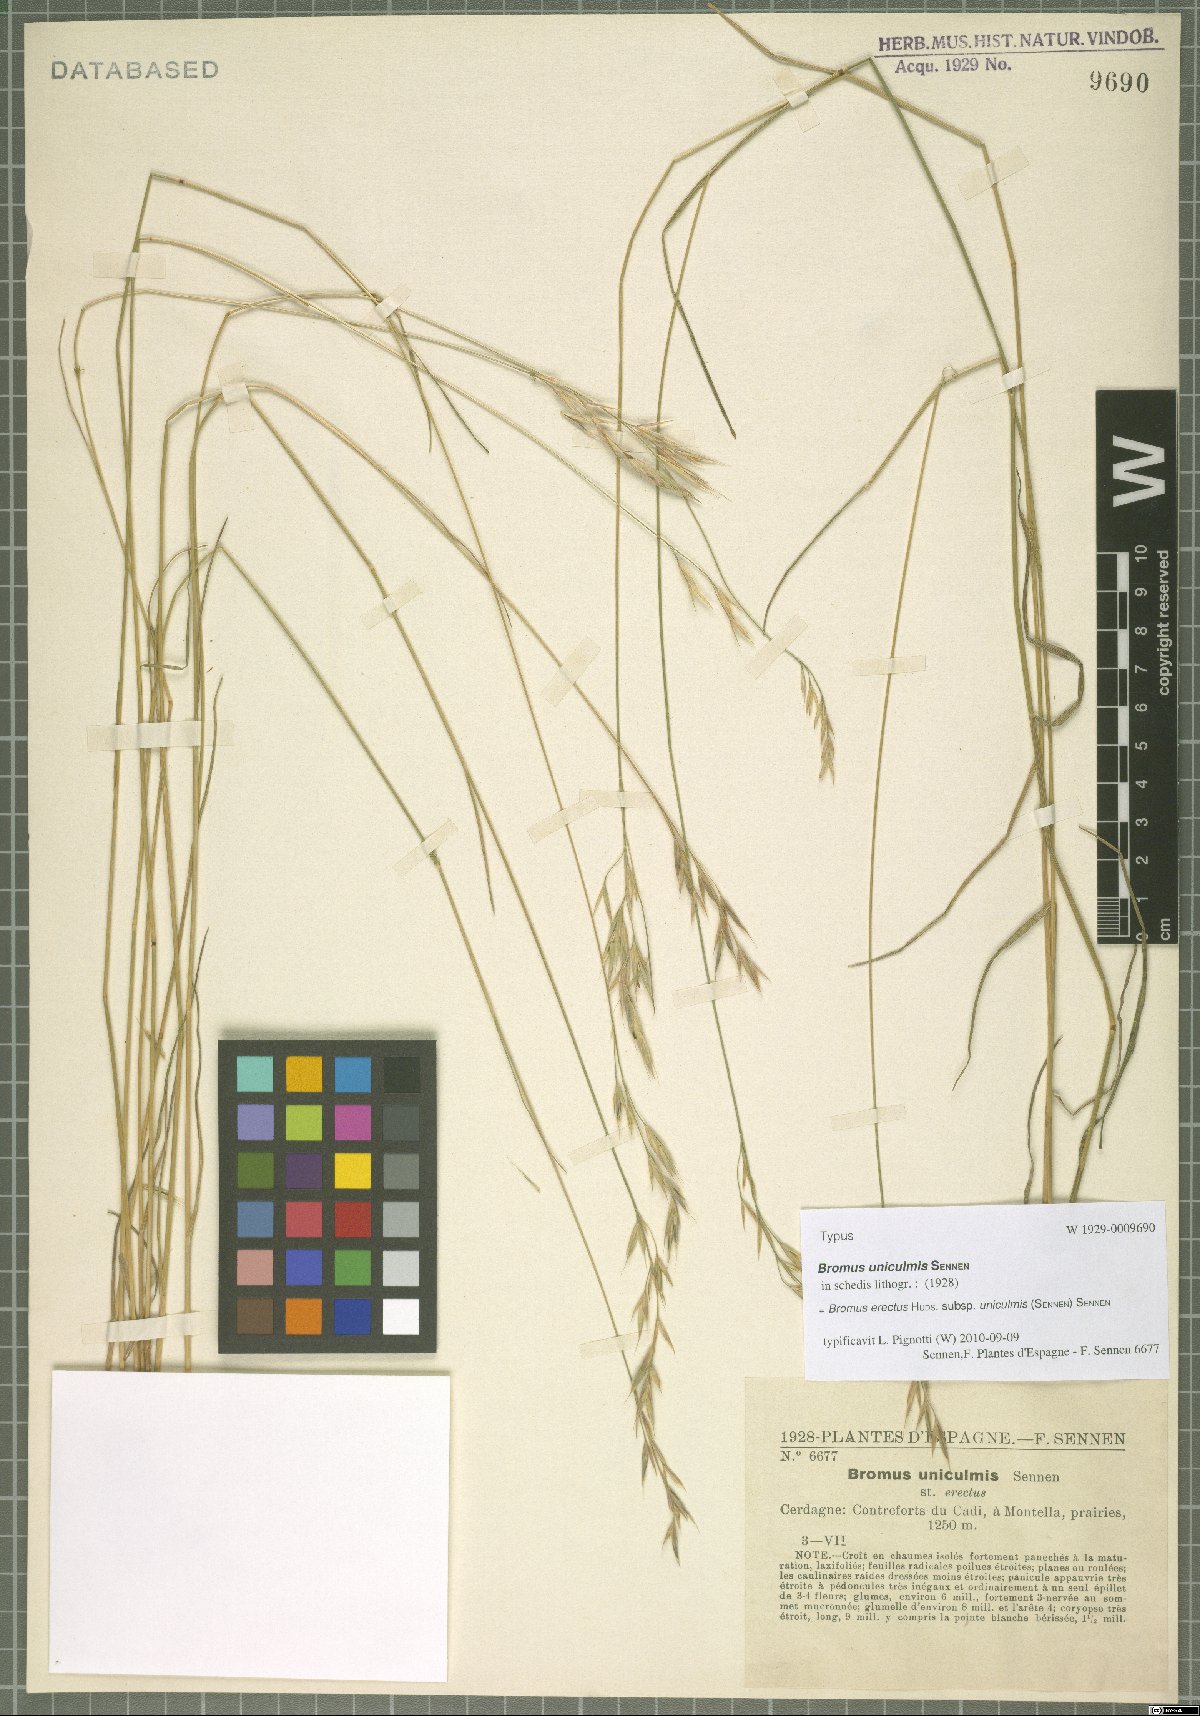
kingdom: Plantae
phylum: Tracheophyta
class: Liliopsida
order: Poales
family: Poaceae
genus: Bromus
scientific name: Bromus erectus
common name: Erect brome
